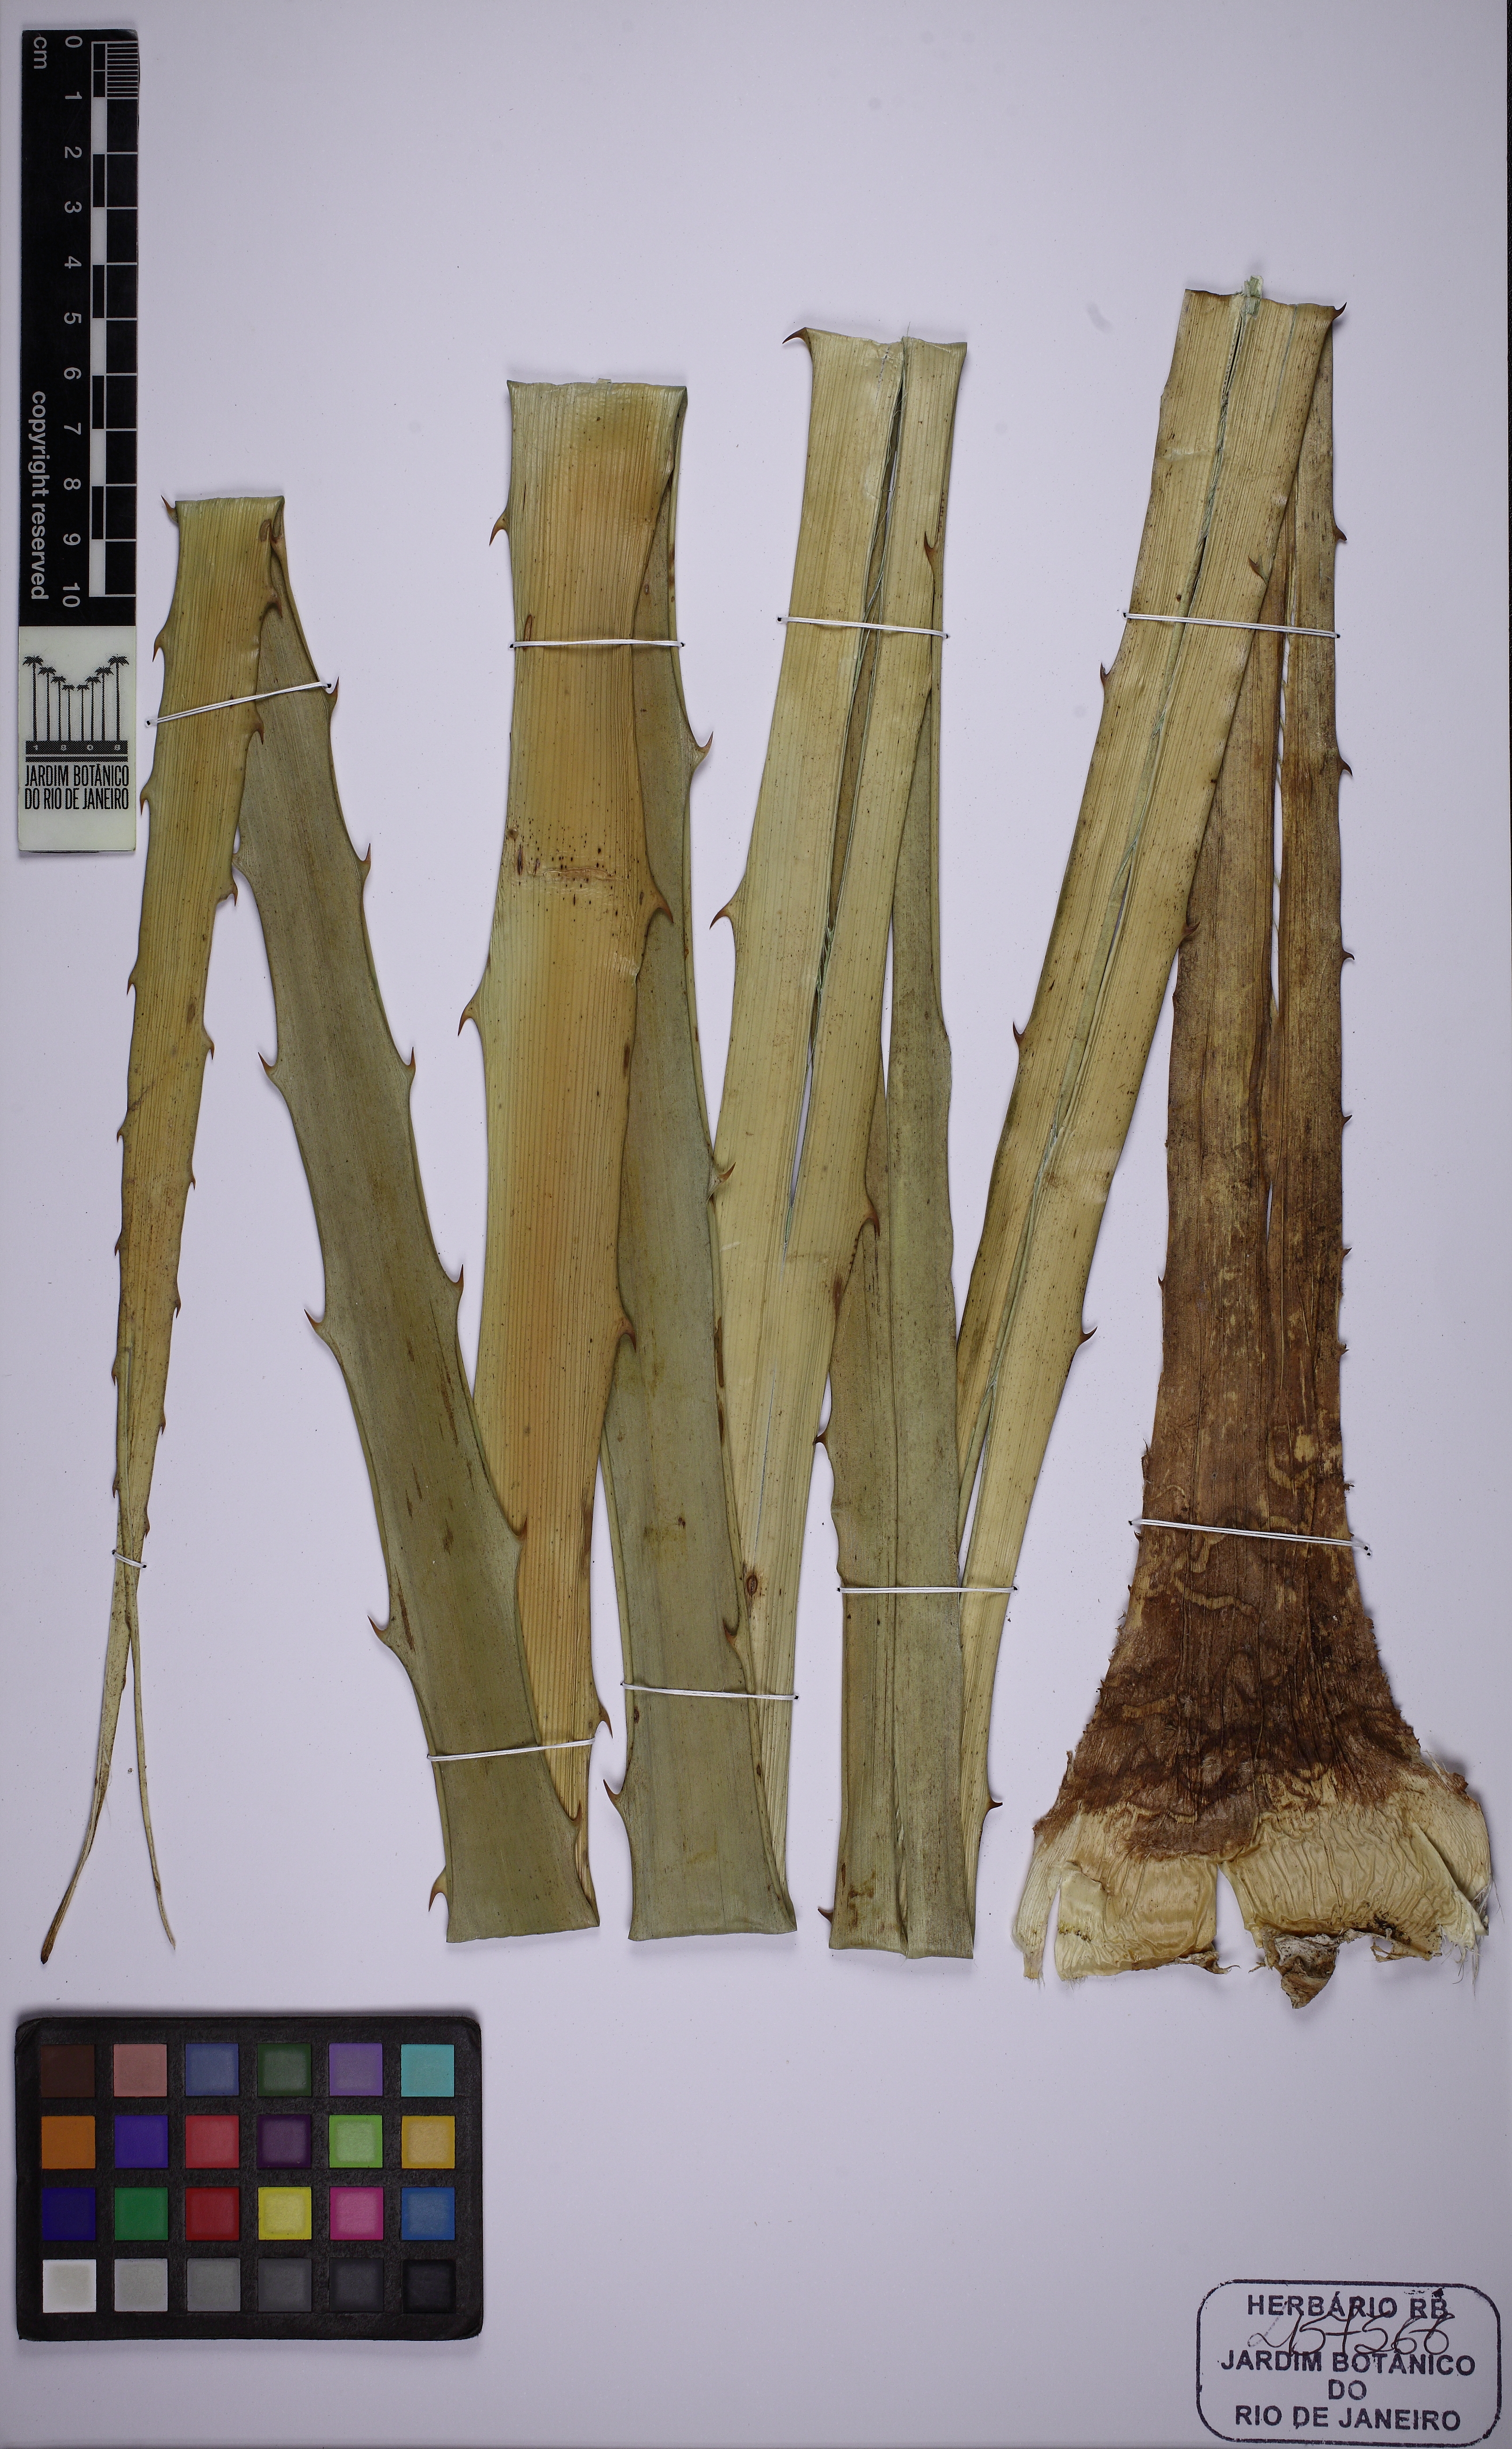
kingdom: Plantae
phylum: Tracheophyta
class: Liliopsida
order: Poales
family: Bromeliaceae
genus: Bromelia
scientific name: Bromelia antiacantha
